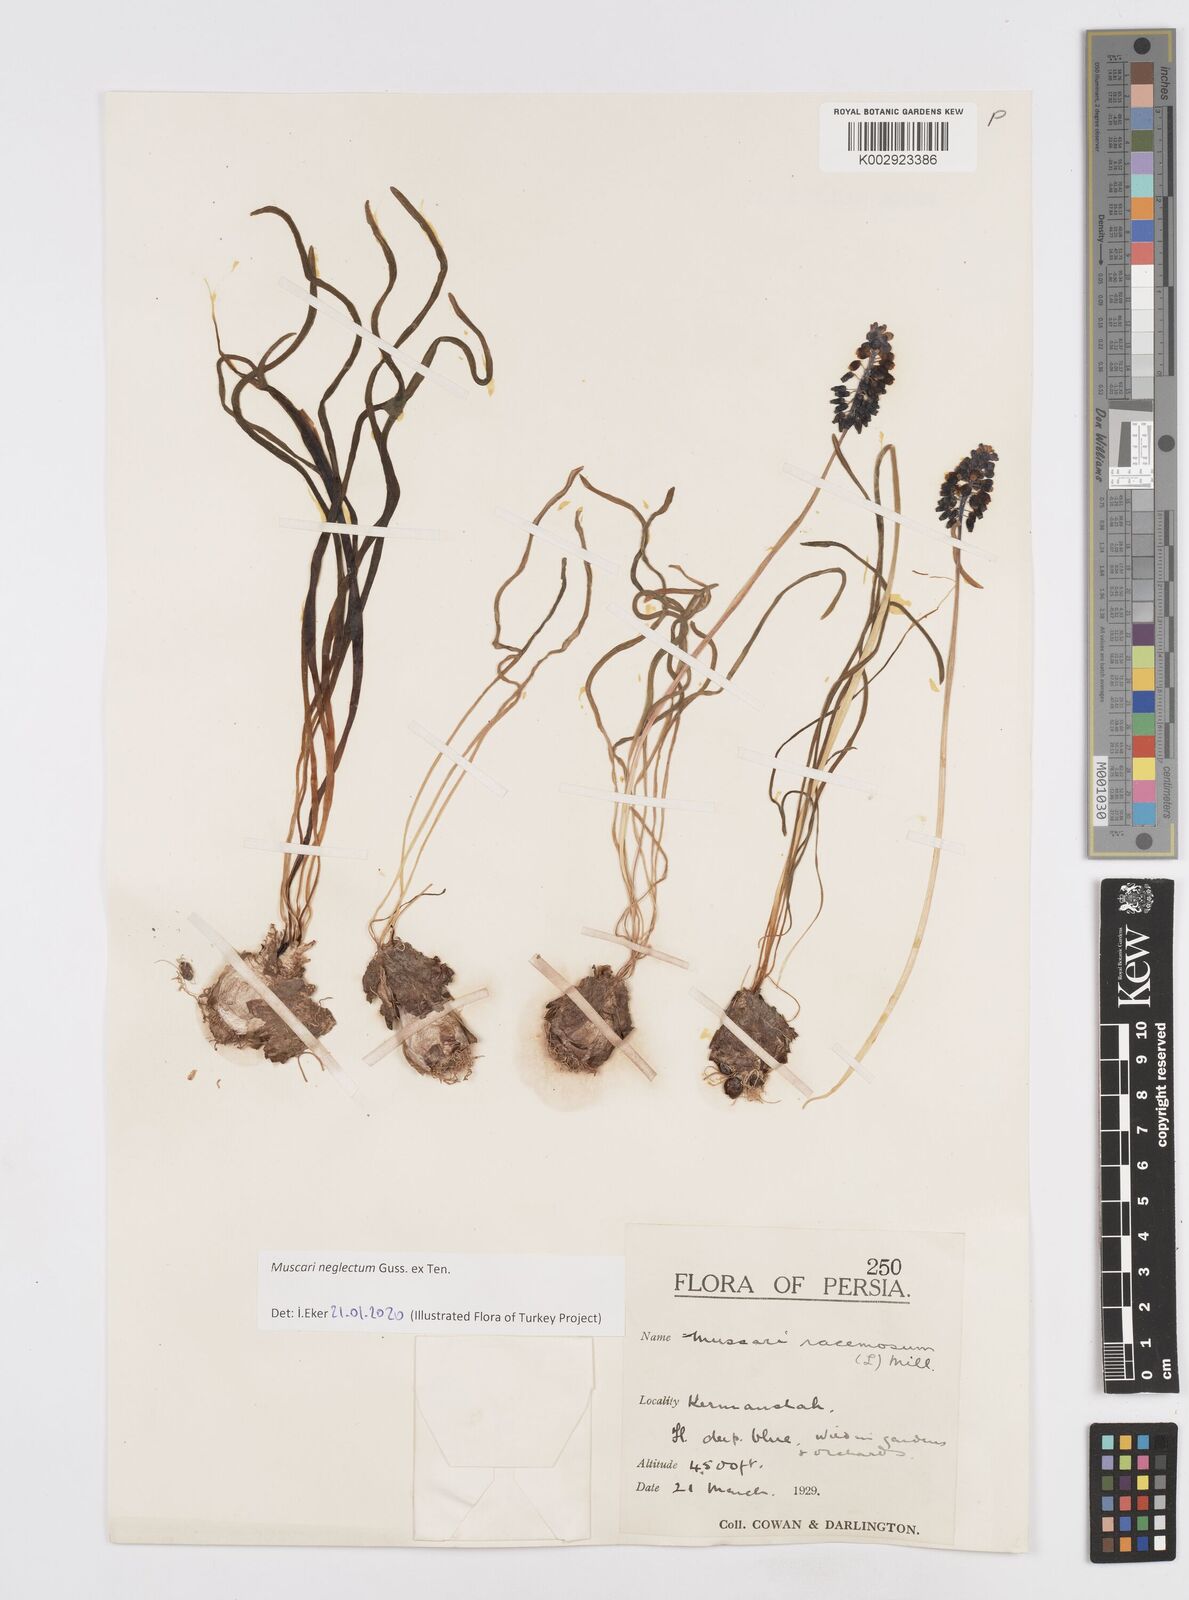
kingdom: Plantae
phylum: Tracheophyta
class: Liliopsida
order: Asparagales
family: Asparagaceae
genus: Muscari
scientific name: Muscari neglectum
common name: Grape-hyacinth
